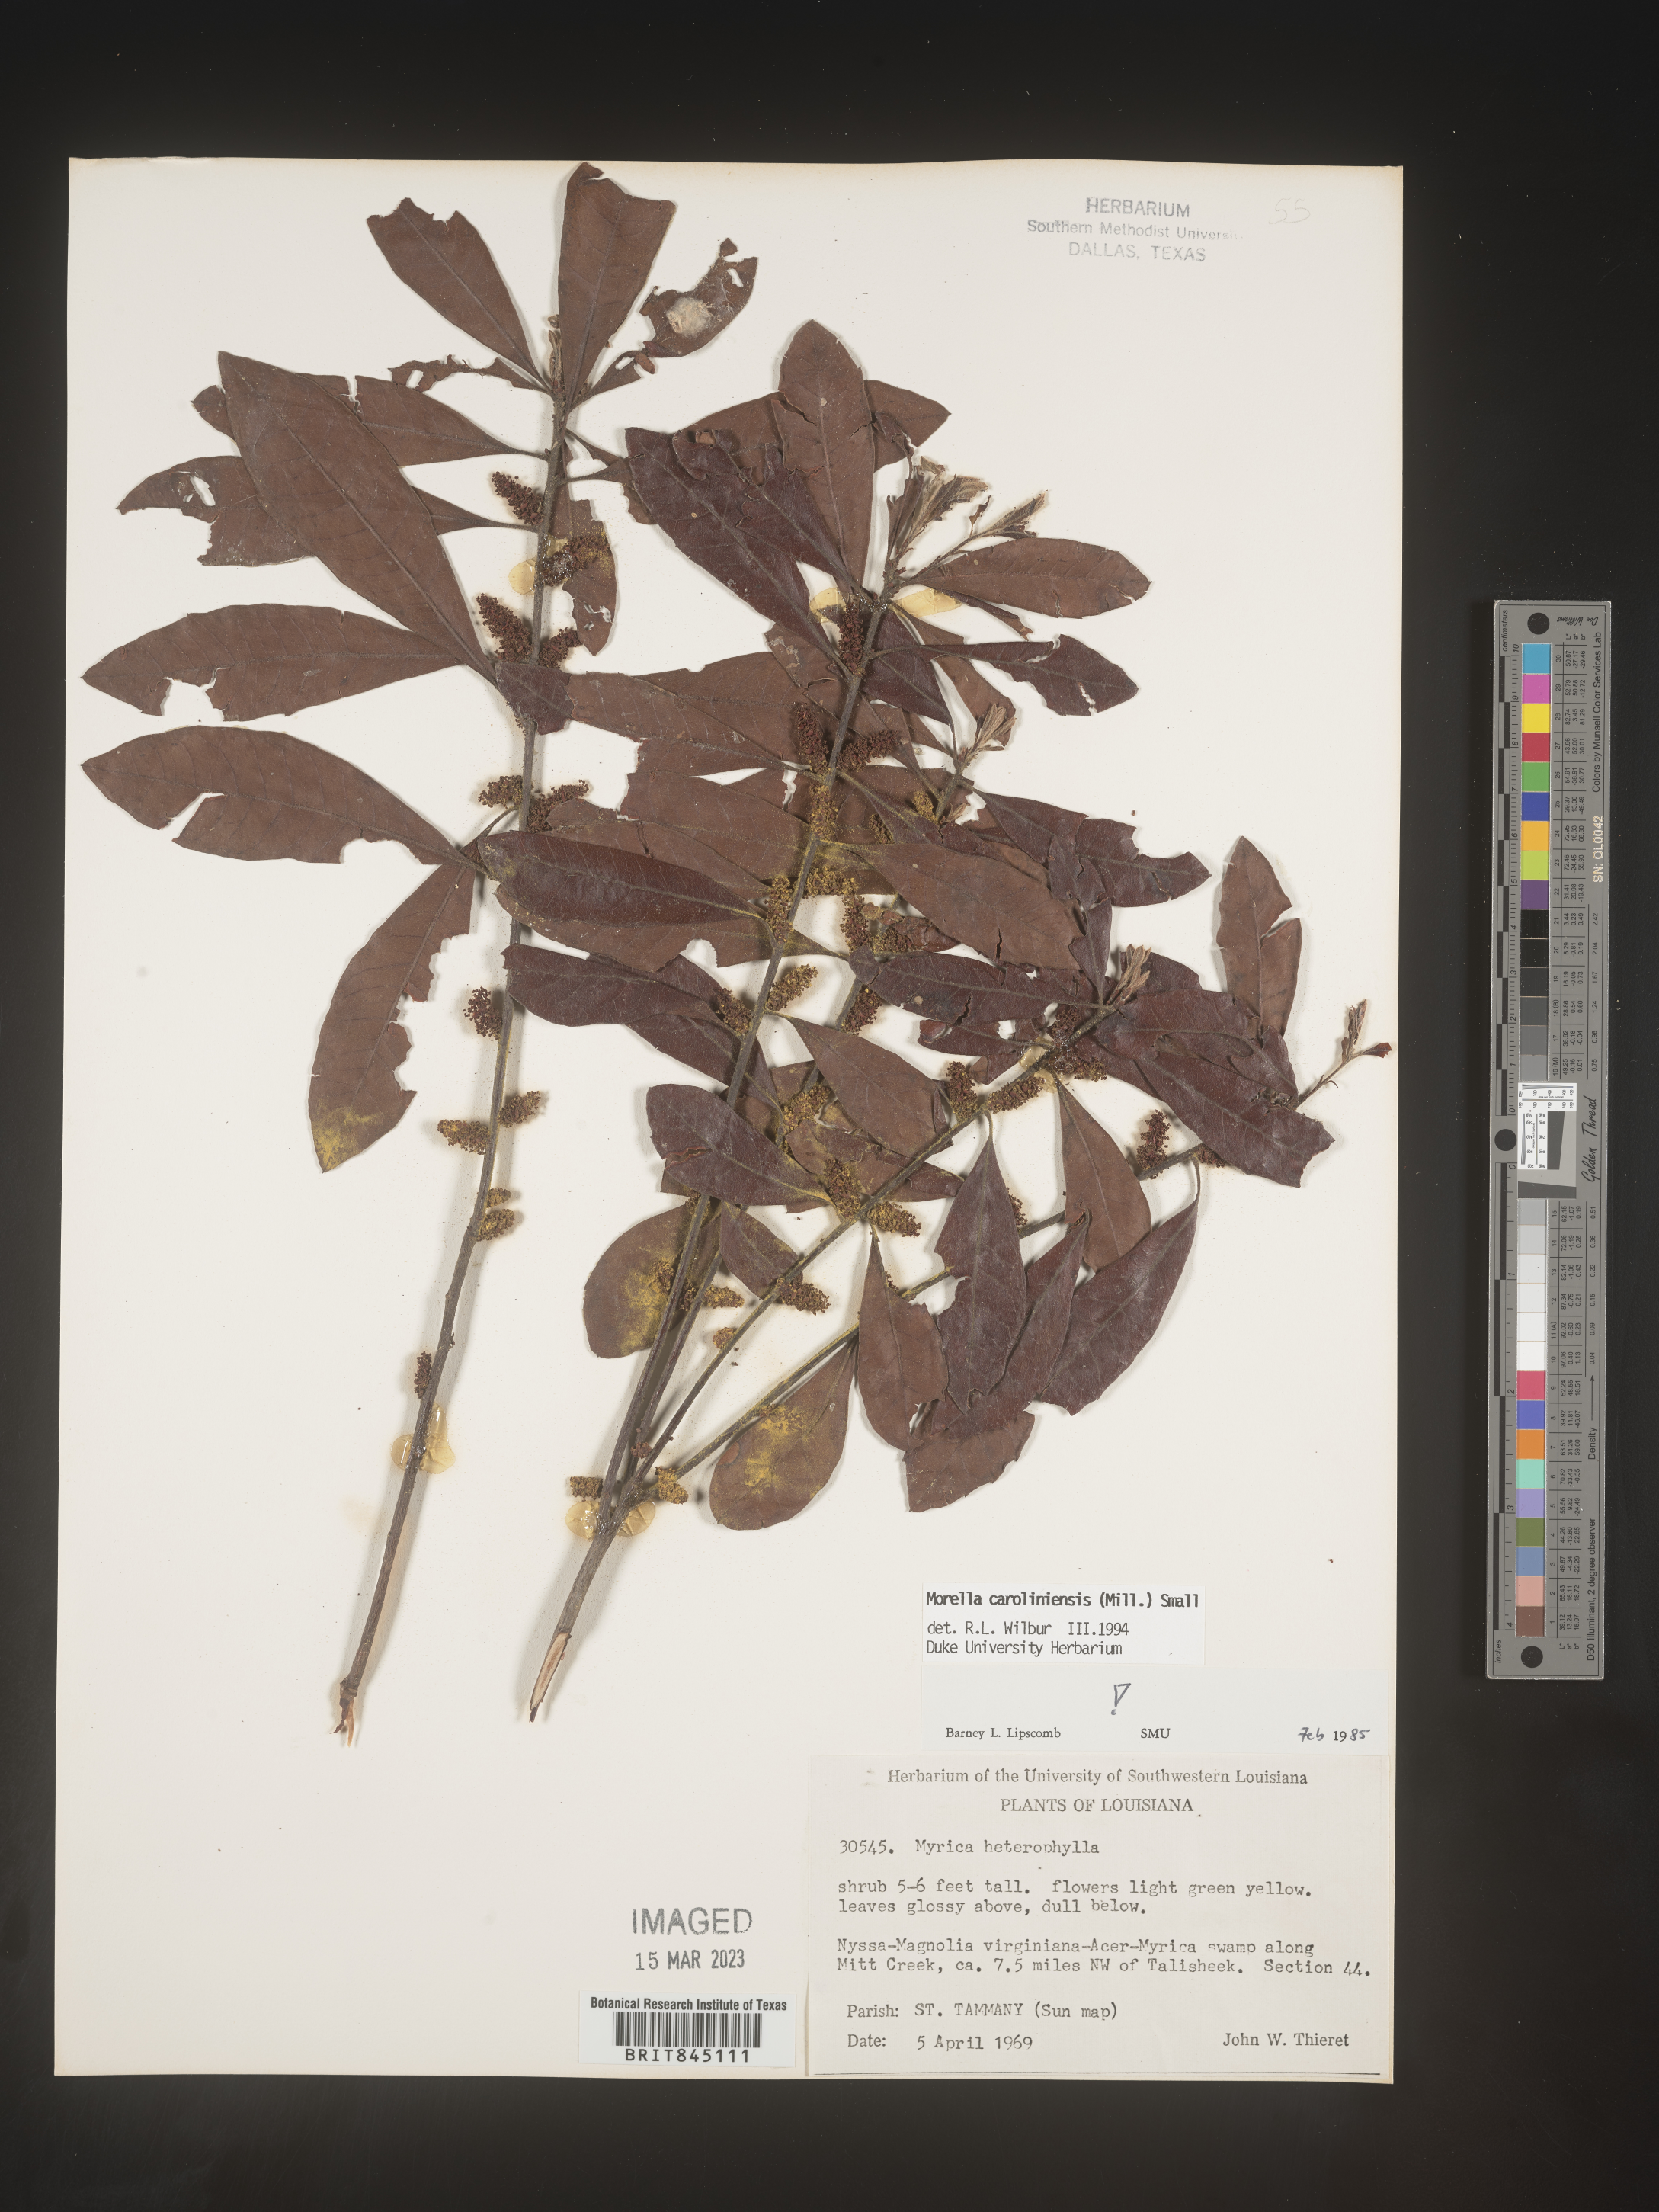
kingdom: Plantae
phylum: Tracheophyta
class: Magnoliopsida
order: Fagales
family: Myricaceae
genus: Morella
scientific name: Morella caroliniensis
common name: Evergreen bayberry
